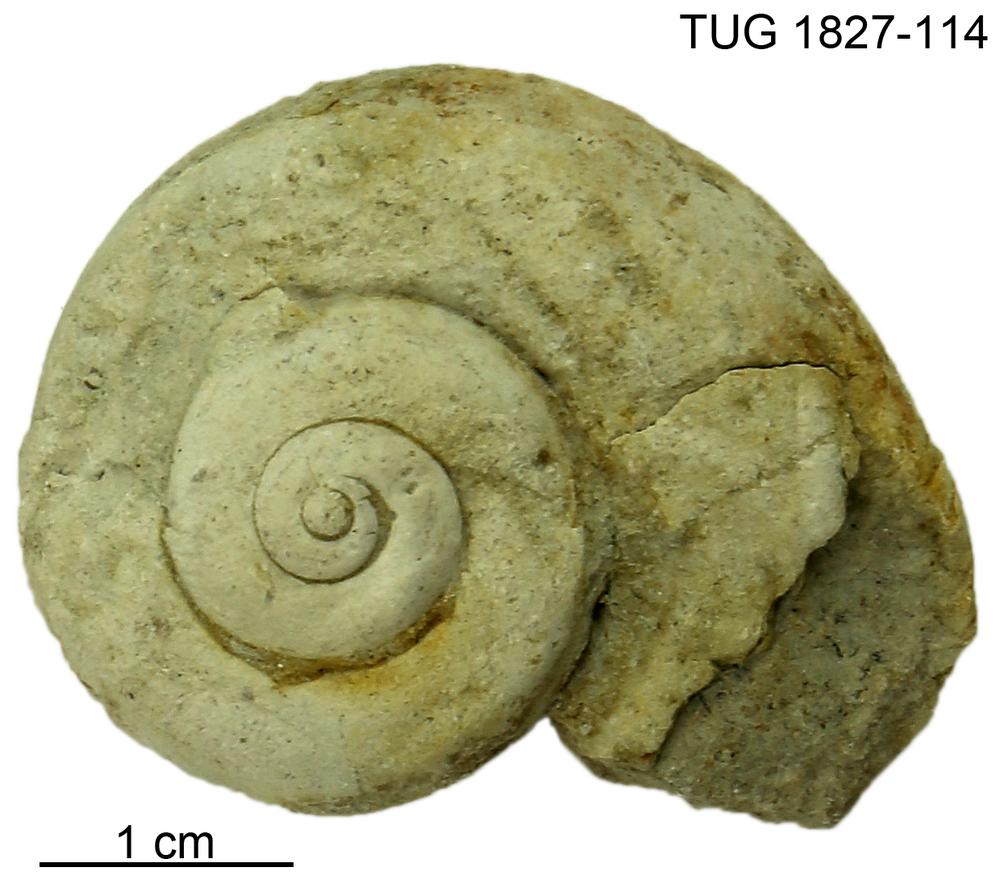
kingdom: Animalia
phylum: Mollusca
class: Gastropoda
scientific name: Gastropoda
